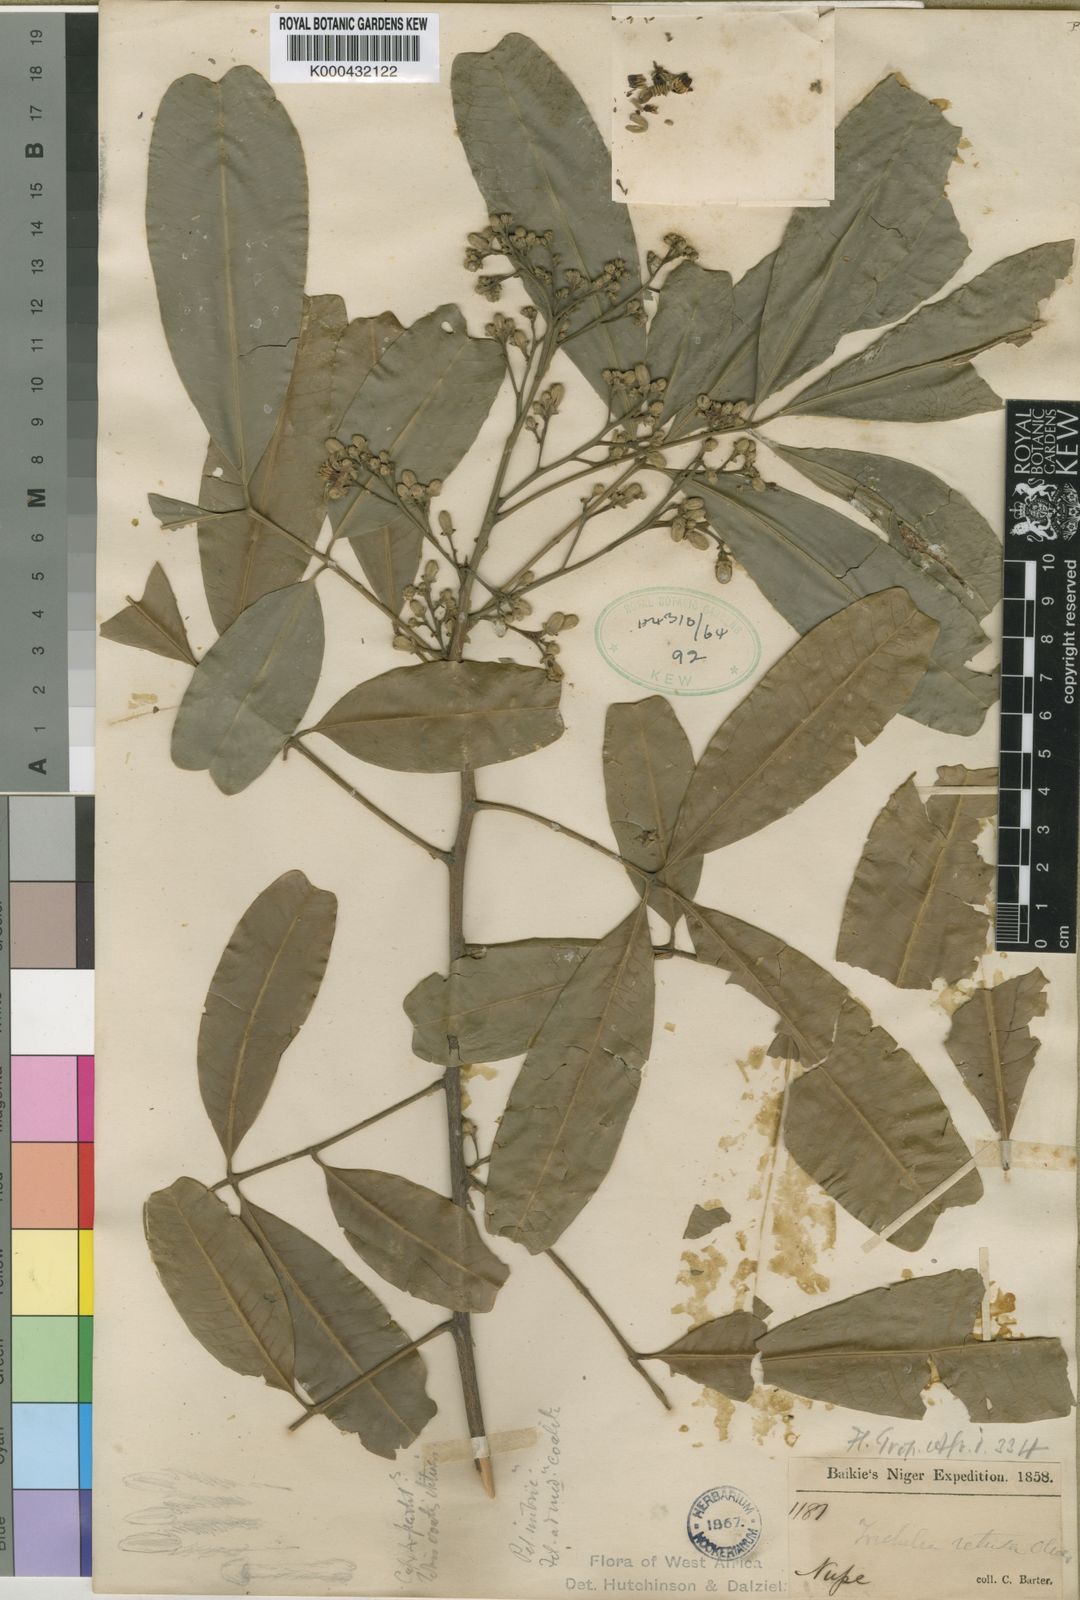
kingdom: Plantae
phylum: Tracheophyta
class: Magnoliopsida
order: Sapindales
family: Meliaceae
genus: Trichilia
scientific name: Trichilia retusa
